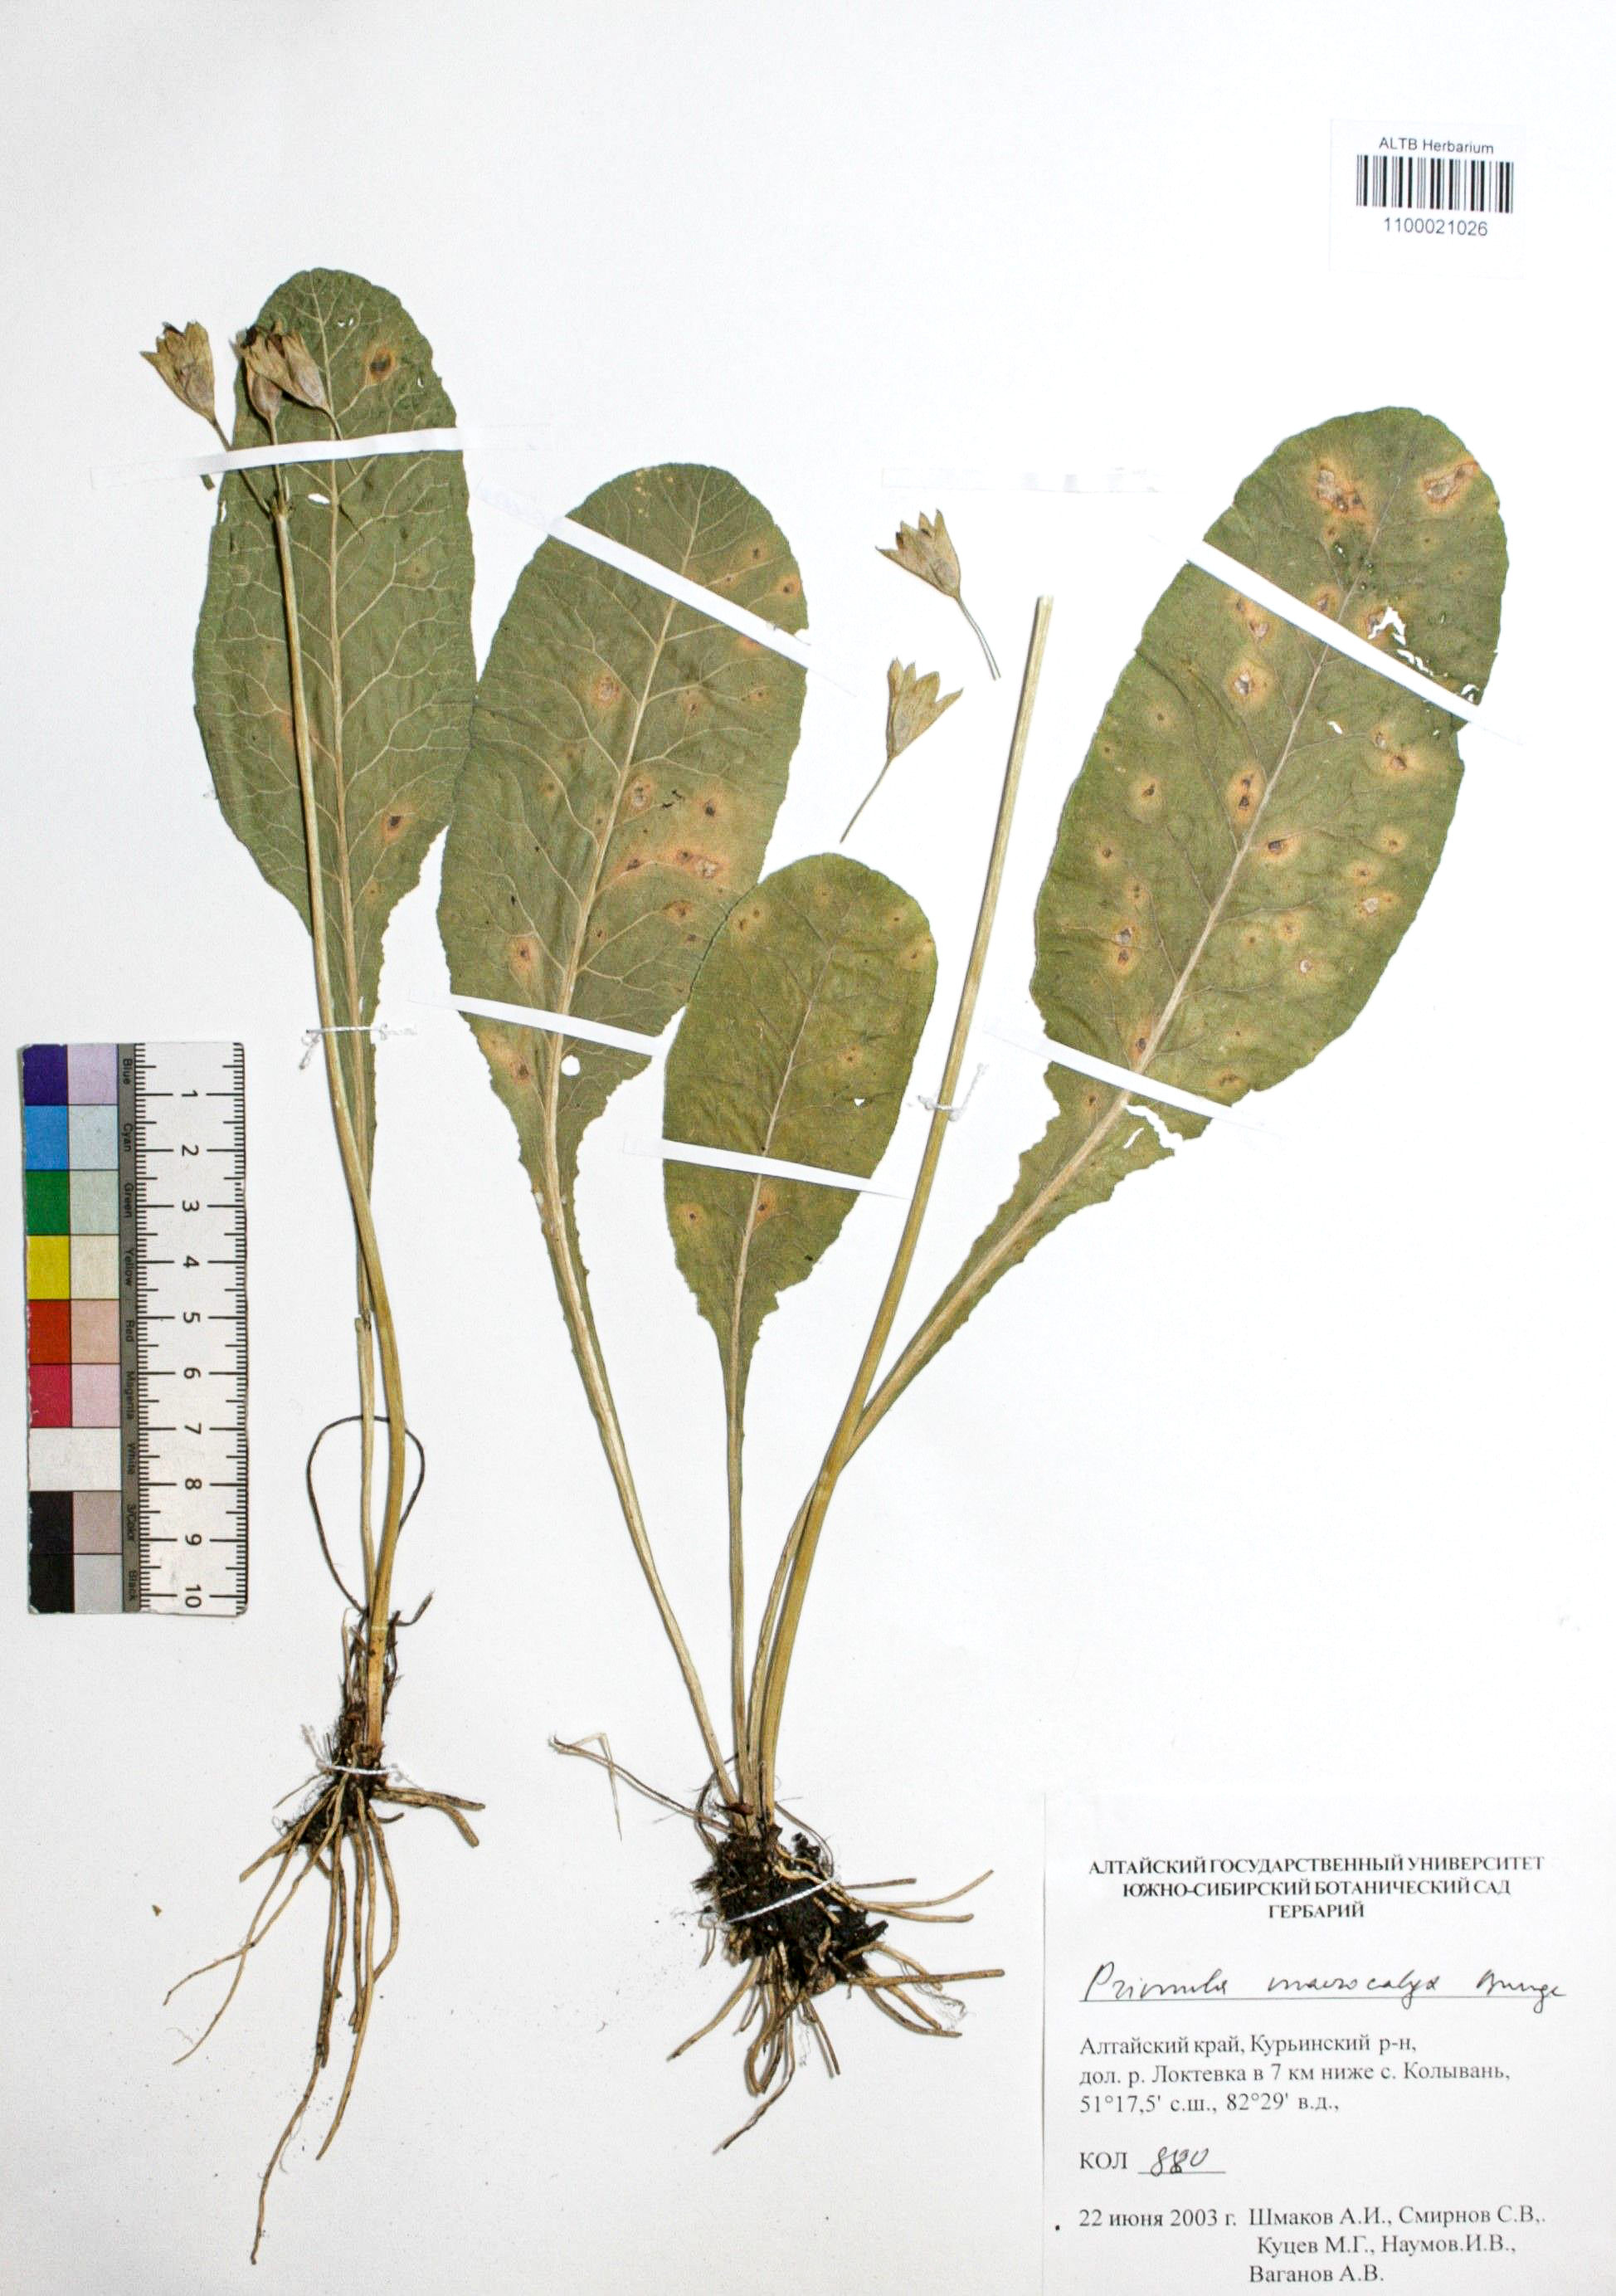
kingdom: Plantae
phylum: Tracheophyta
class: Magnoliopsida
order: Ericales
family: Primulaceae
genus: Primula
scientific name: Primula veris
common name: Cowslip
